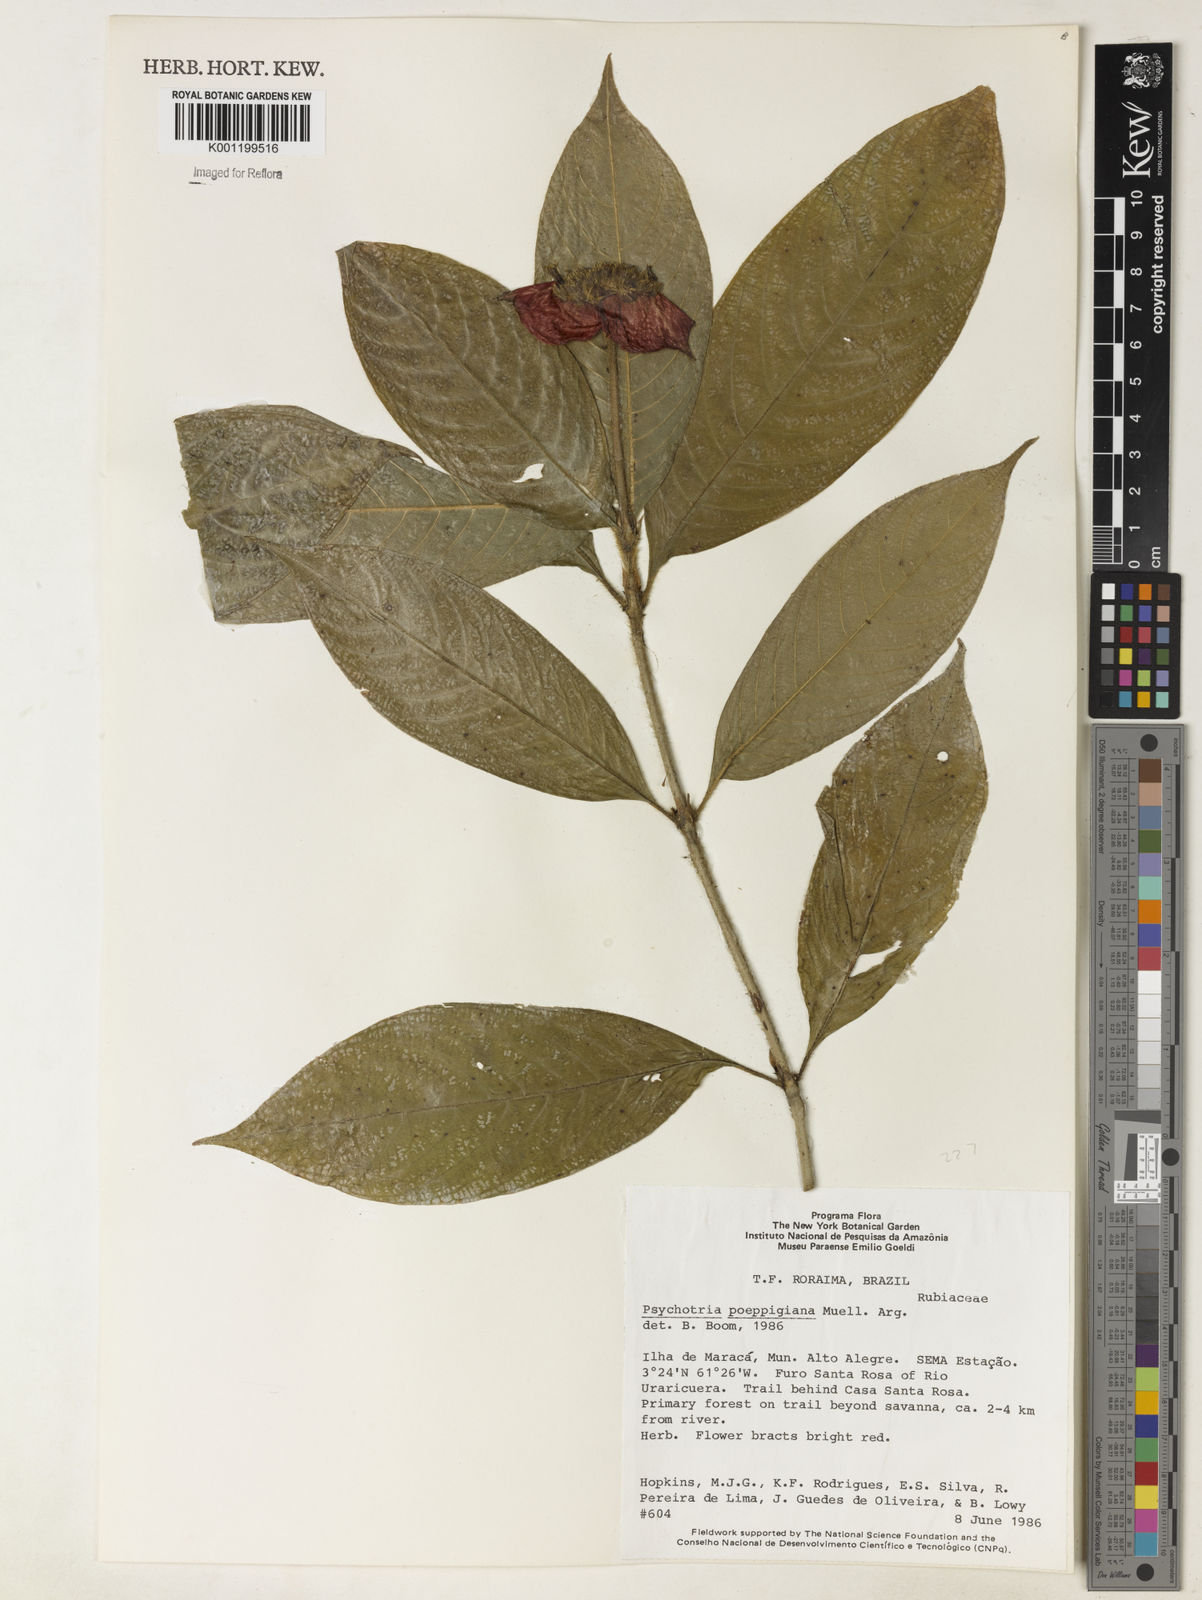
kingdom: Plantae
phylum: Tracheophyta
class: Magnoliopsida
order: Gentianales
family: Rubiaceae
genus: Psychotria
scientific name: Psychotria
